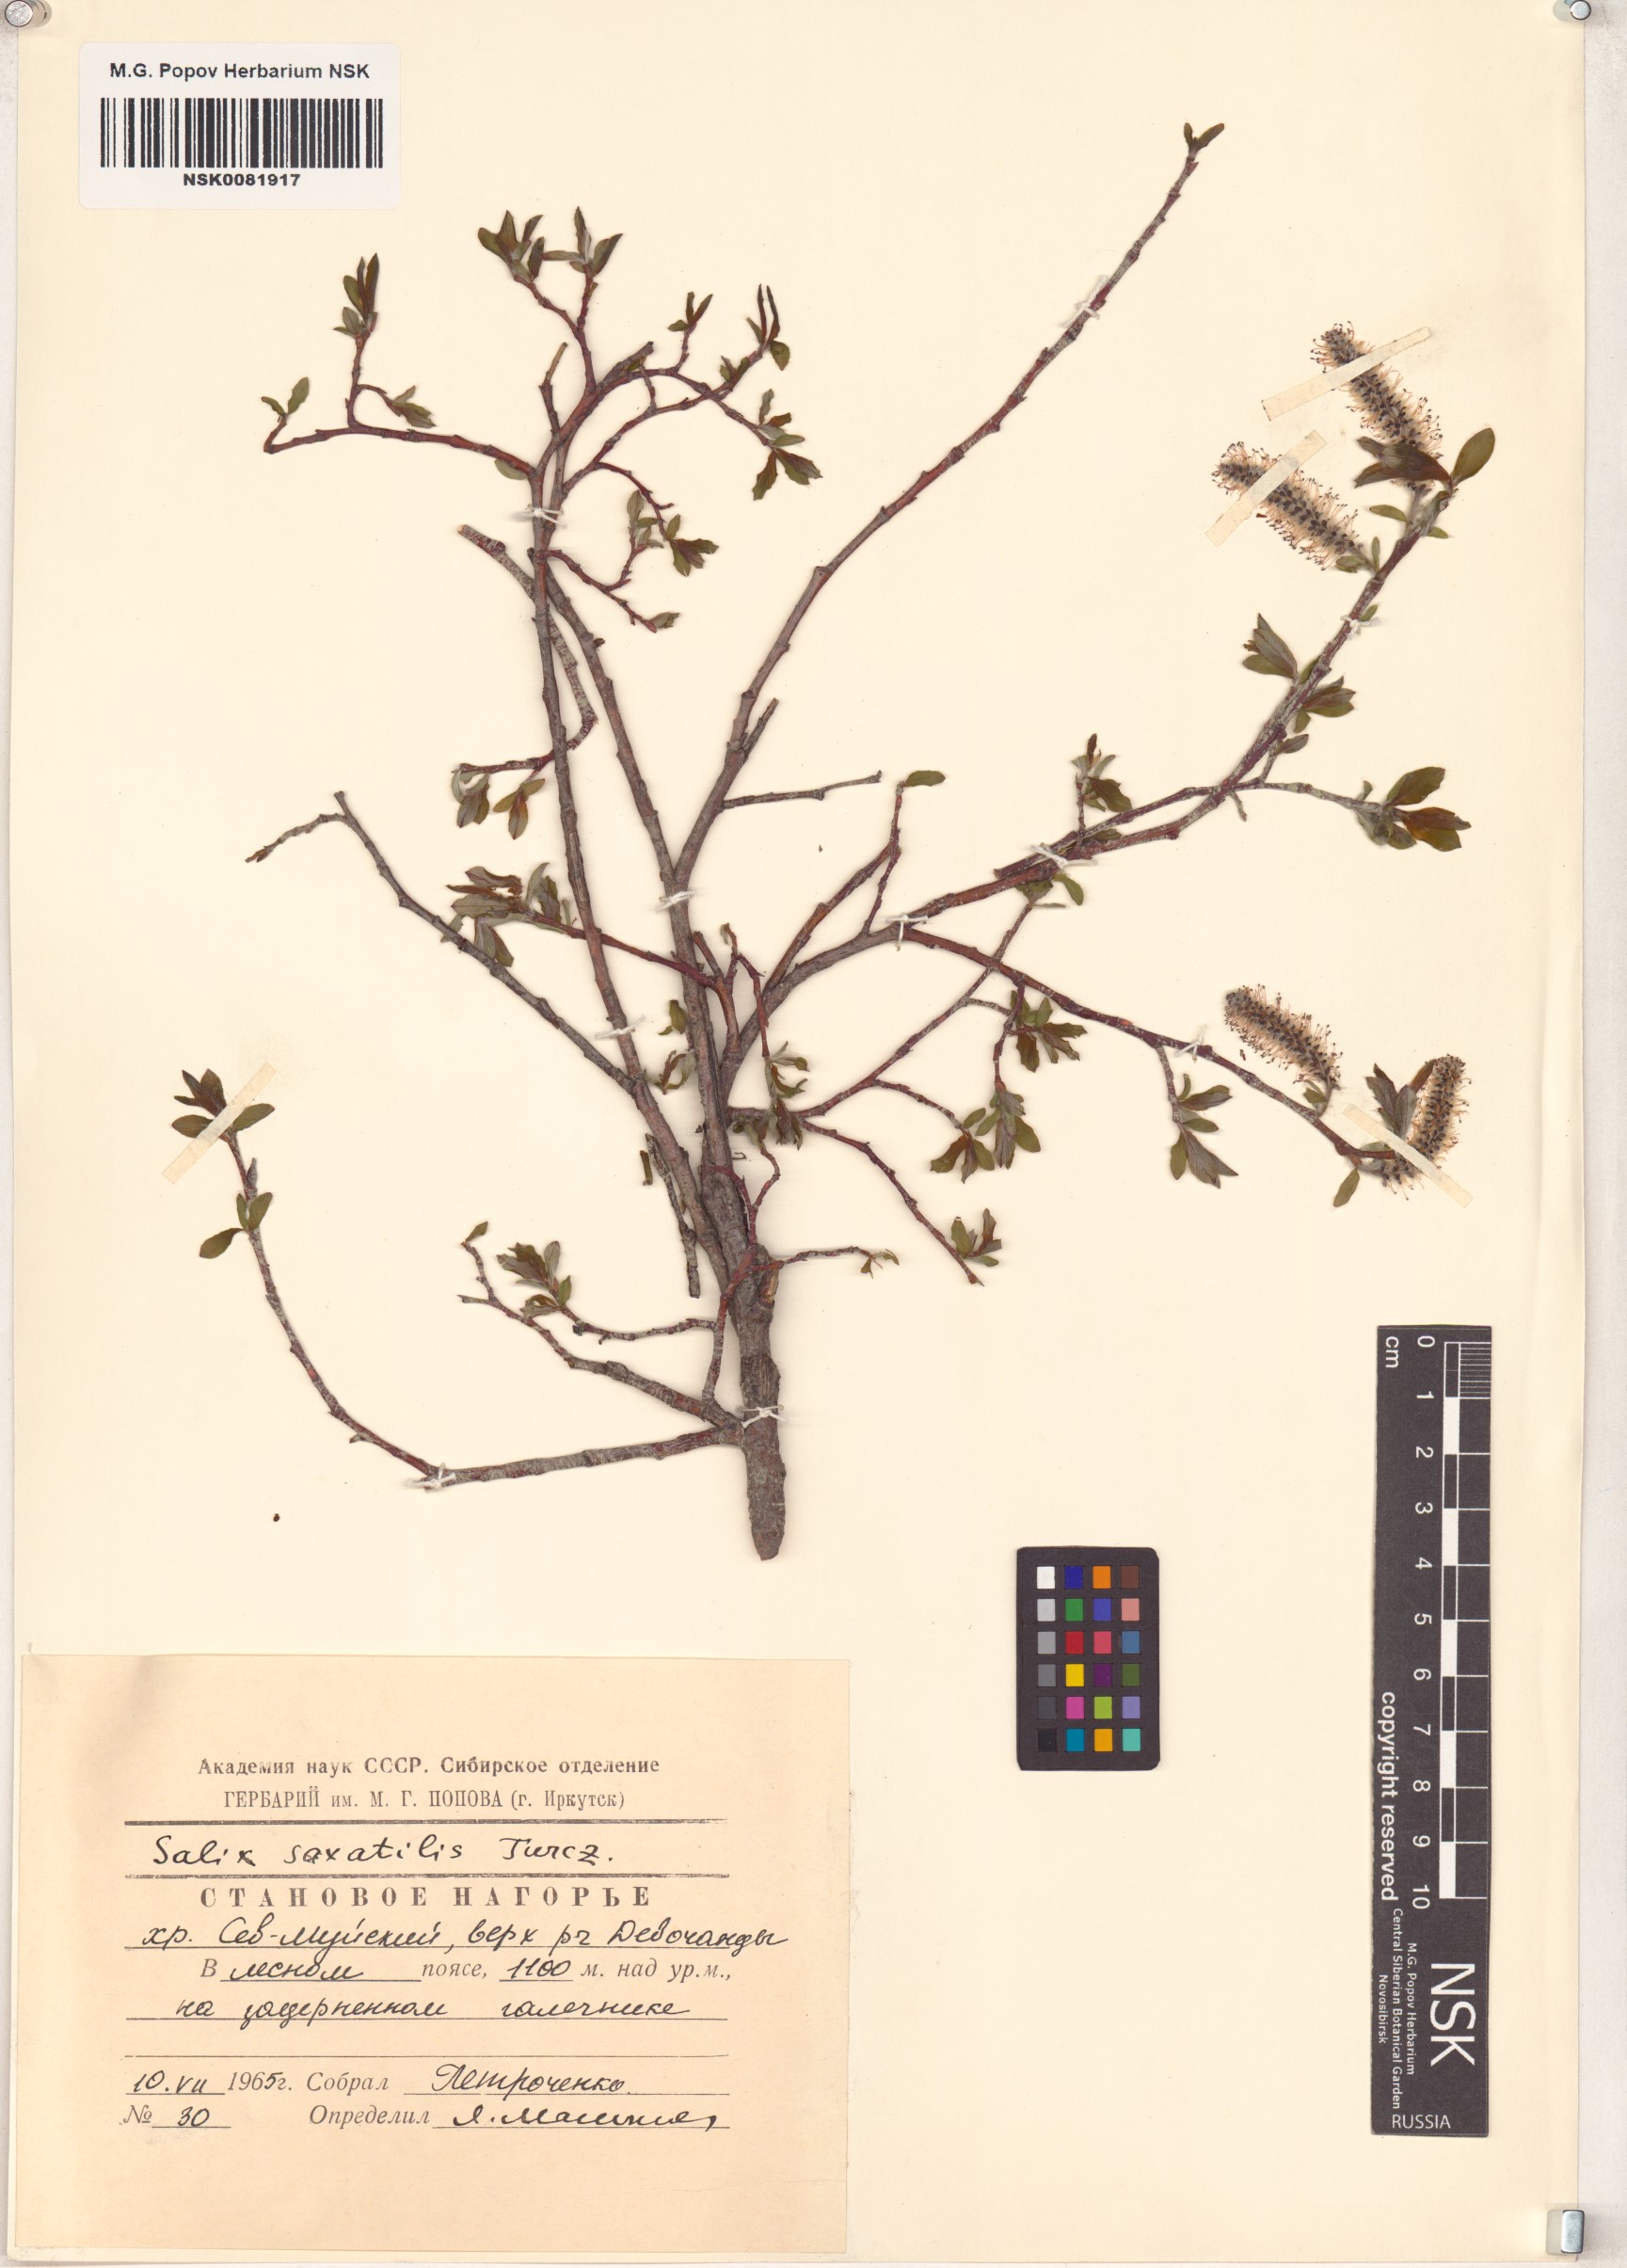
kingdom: Plantae
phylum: Tracheophyta
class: Magnoliopsida
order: Malpighiales
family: Salicaceae
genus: Salix
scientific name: Salix saxatilis
